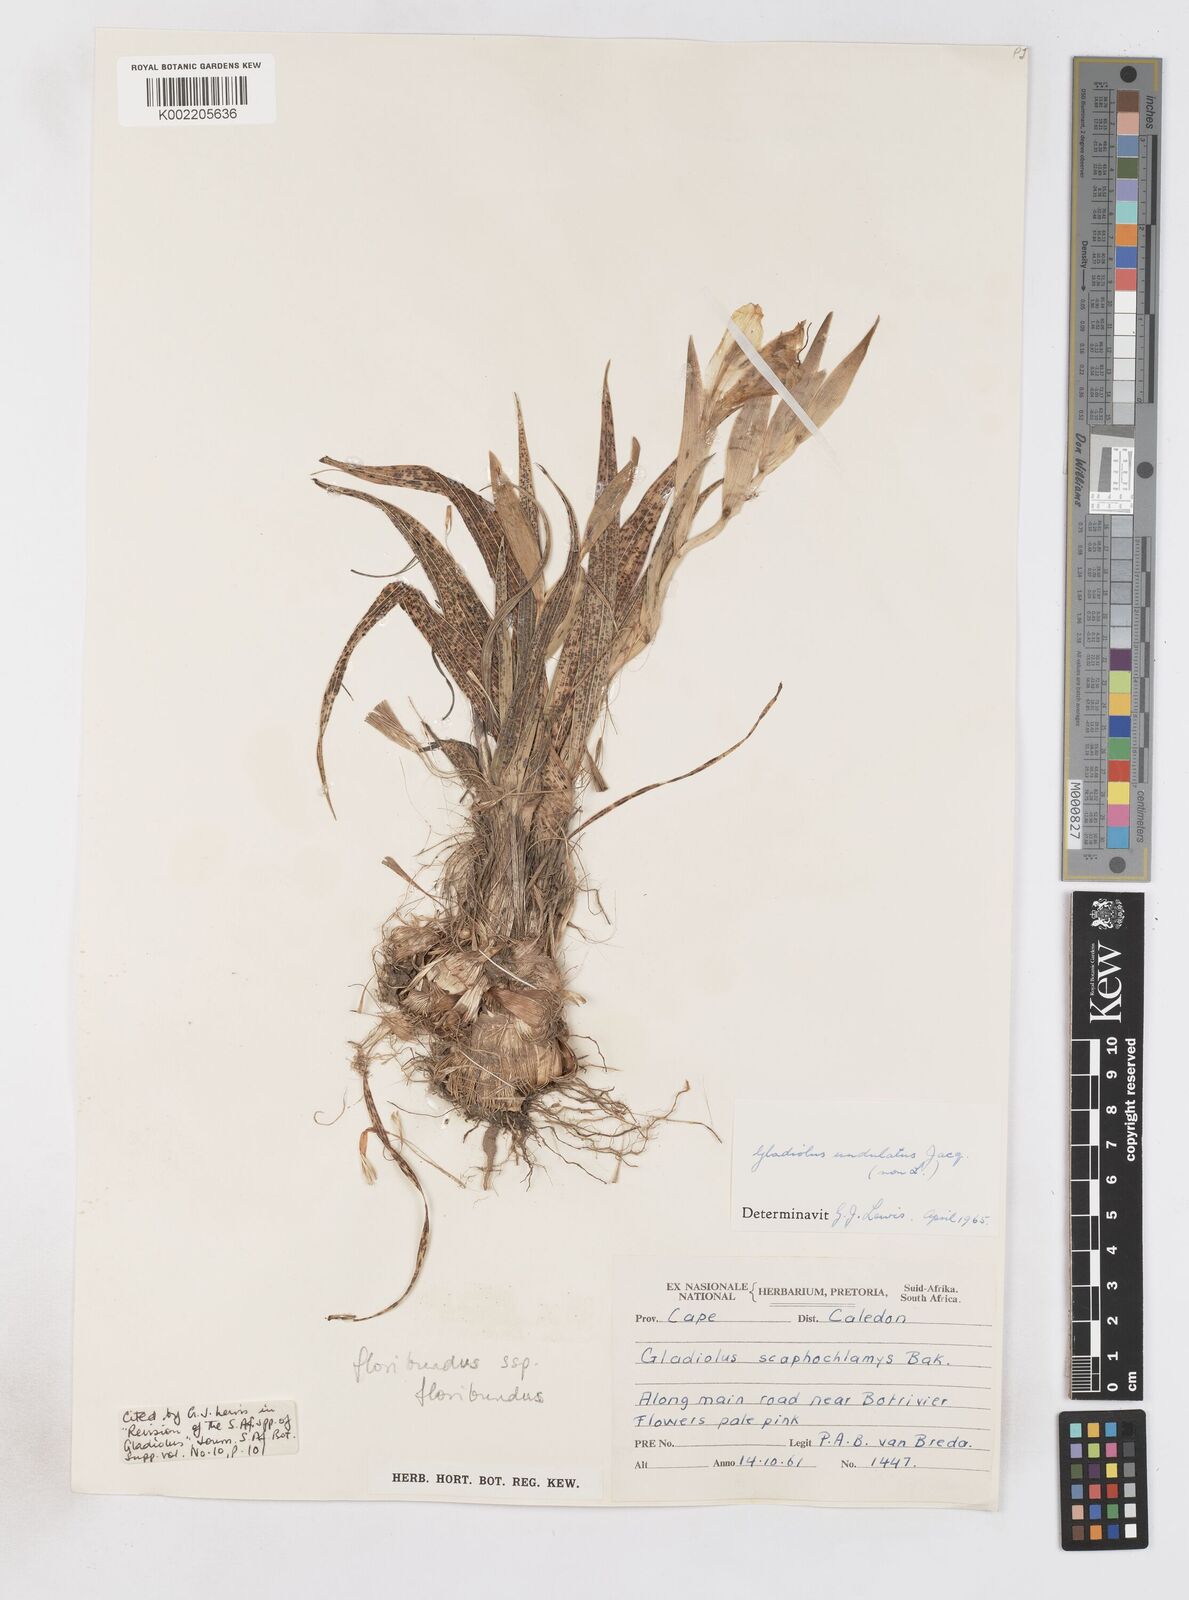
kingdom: Plantae
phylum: Tracheophyta
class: Liliopsida
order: Asparagales
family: Iridaceae
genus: Gladiolus
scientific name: Gladiolus grandiflorus
